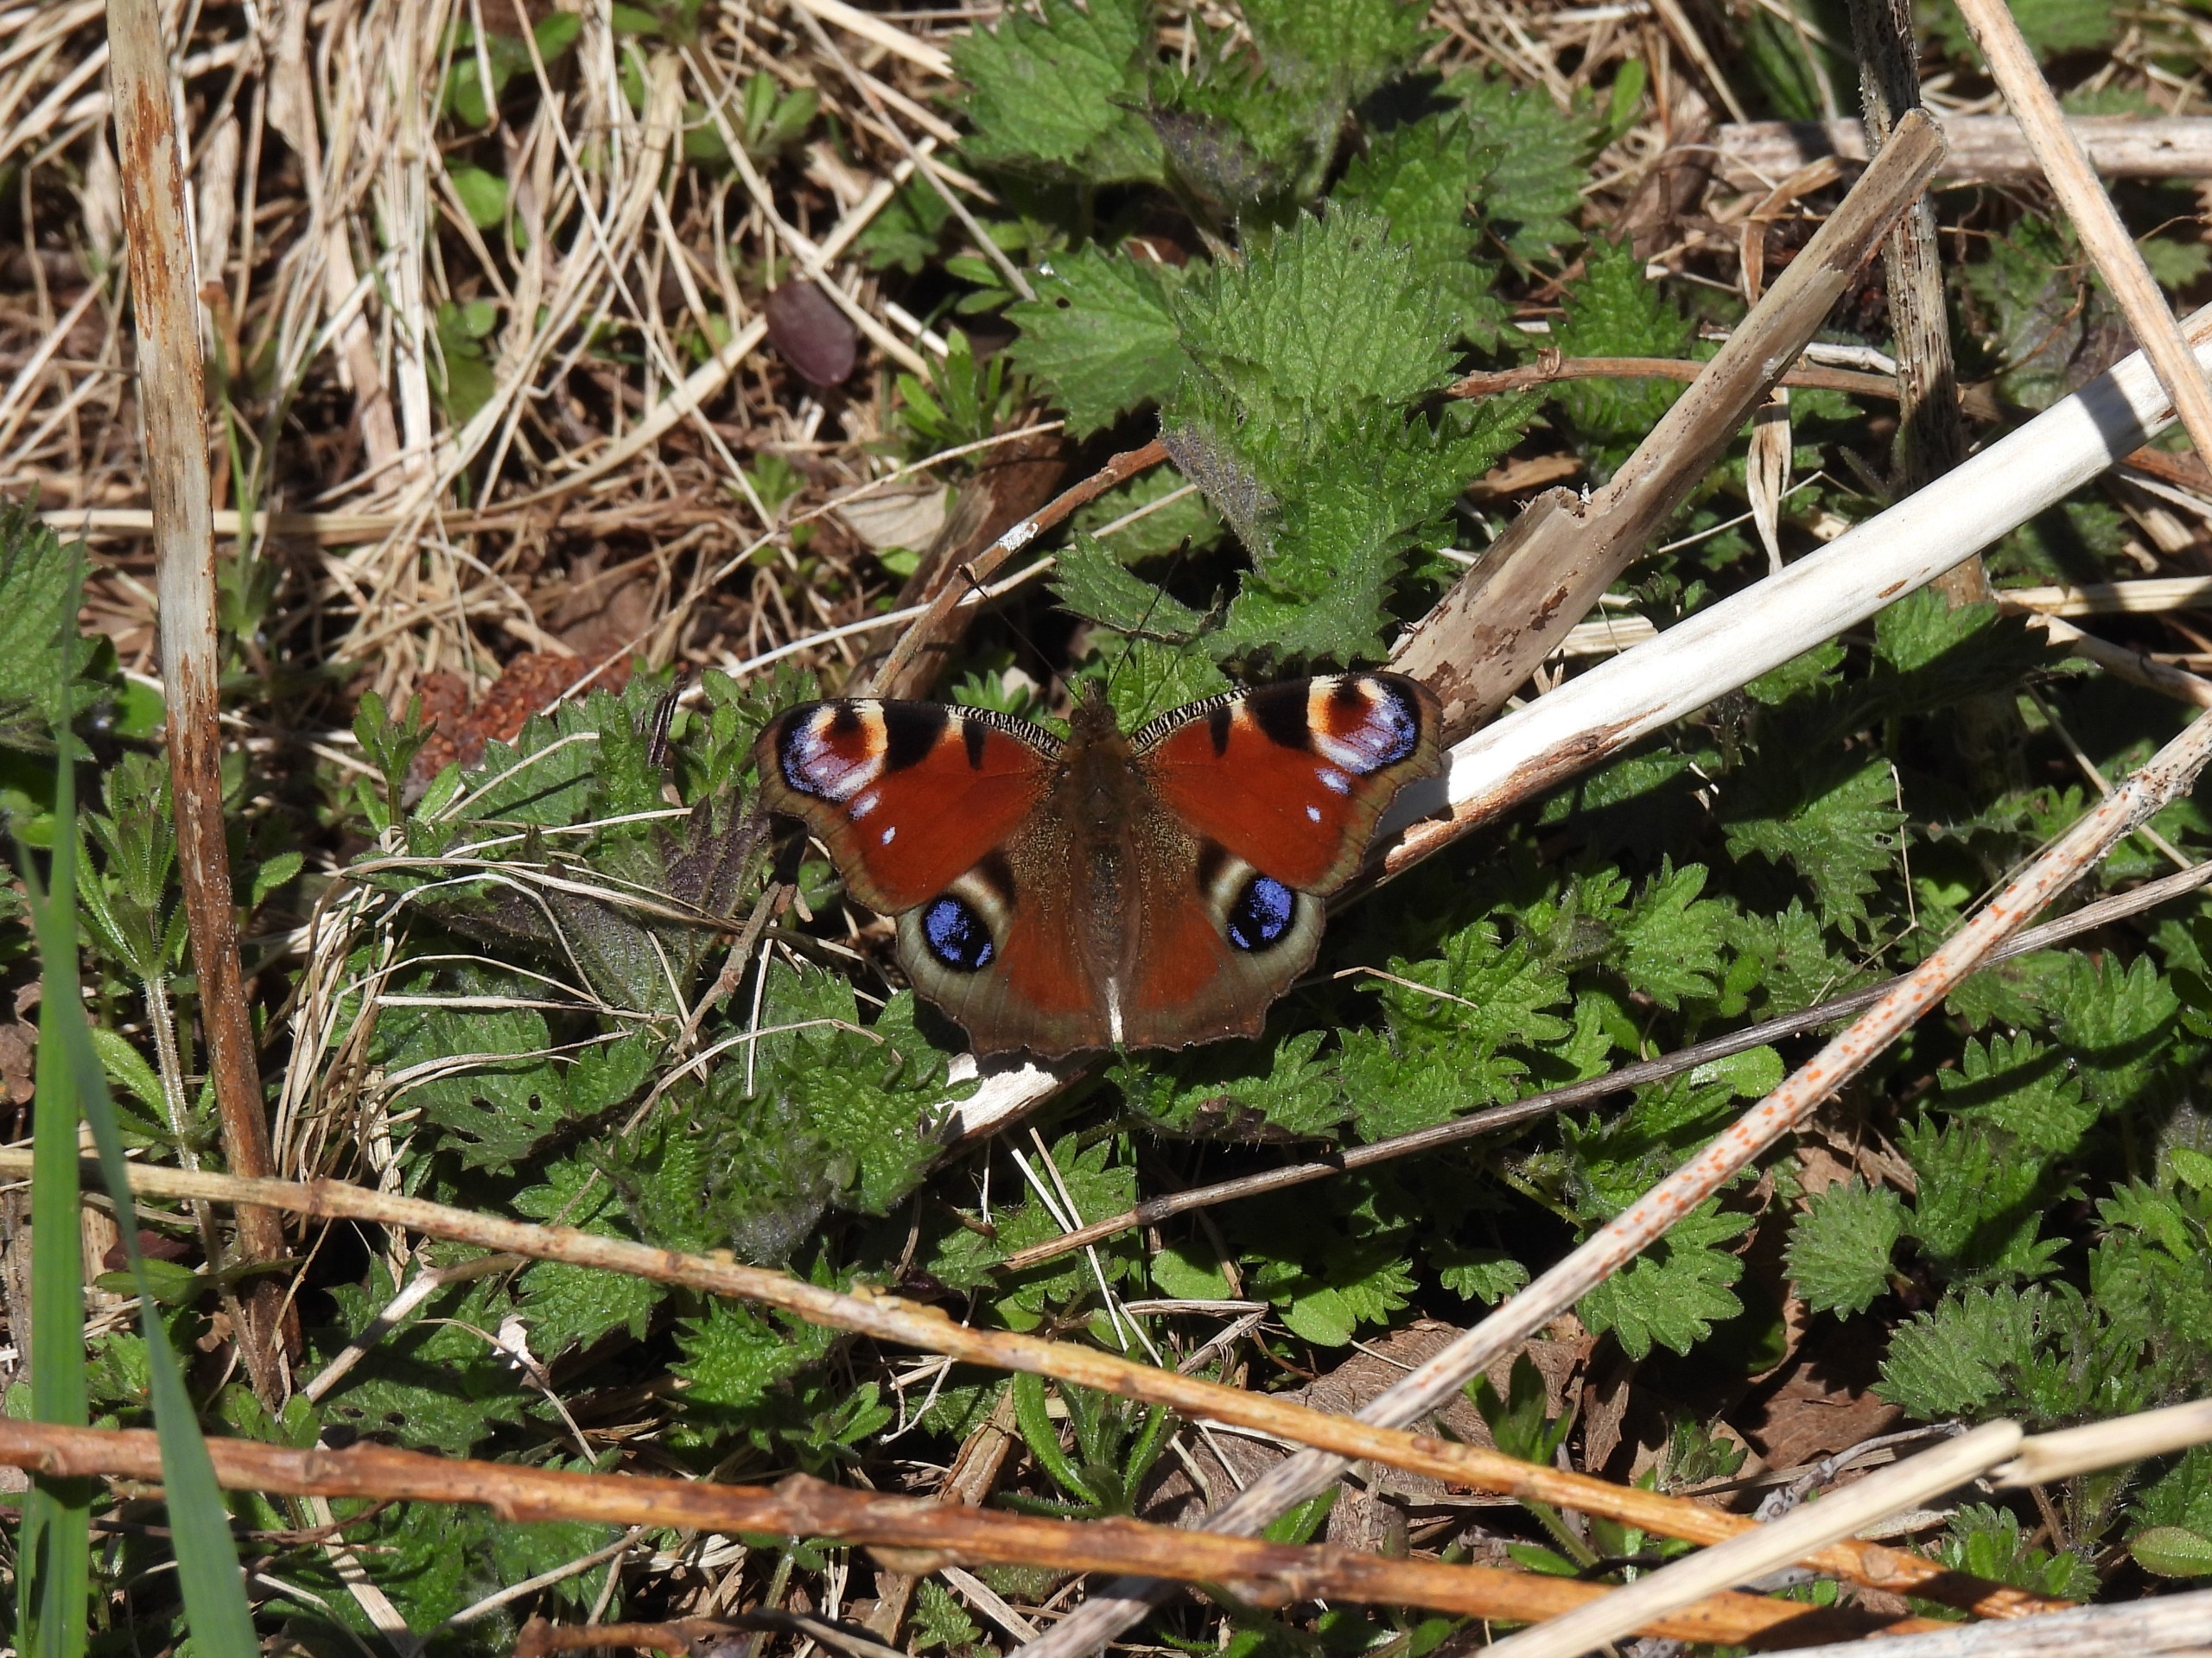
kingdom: Animalia
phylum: Arthropoda
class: Insecta
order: Lepidoptera
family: Nymphalidae
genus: Aglais
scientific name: Aglais io
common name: Dagpåfugleøje
